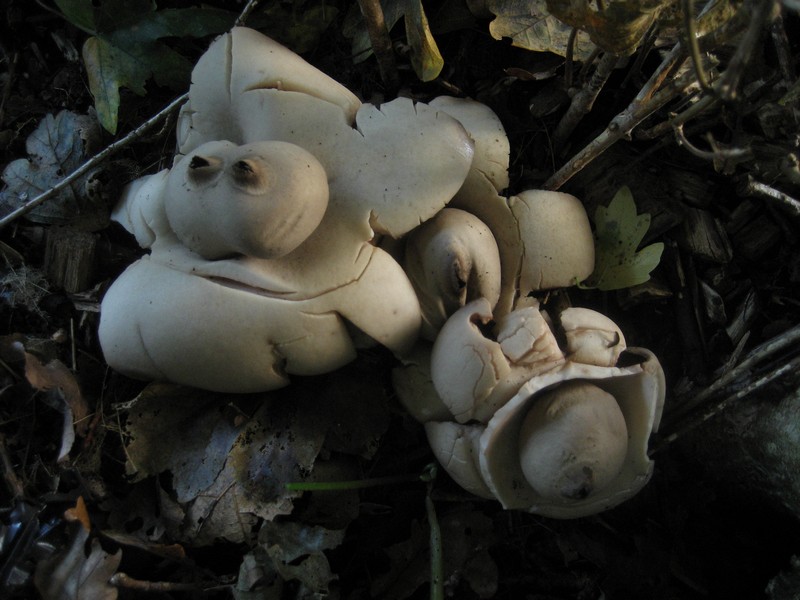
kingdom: Fungi
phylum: Basidiomycota
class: Agaricomycetes
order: Geastrales
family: Geastraceae
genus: Geastrum
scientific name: Geastrum michelianum
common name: kødet stjernebold
